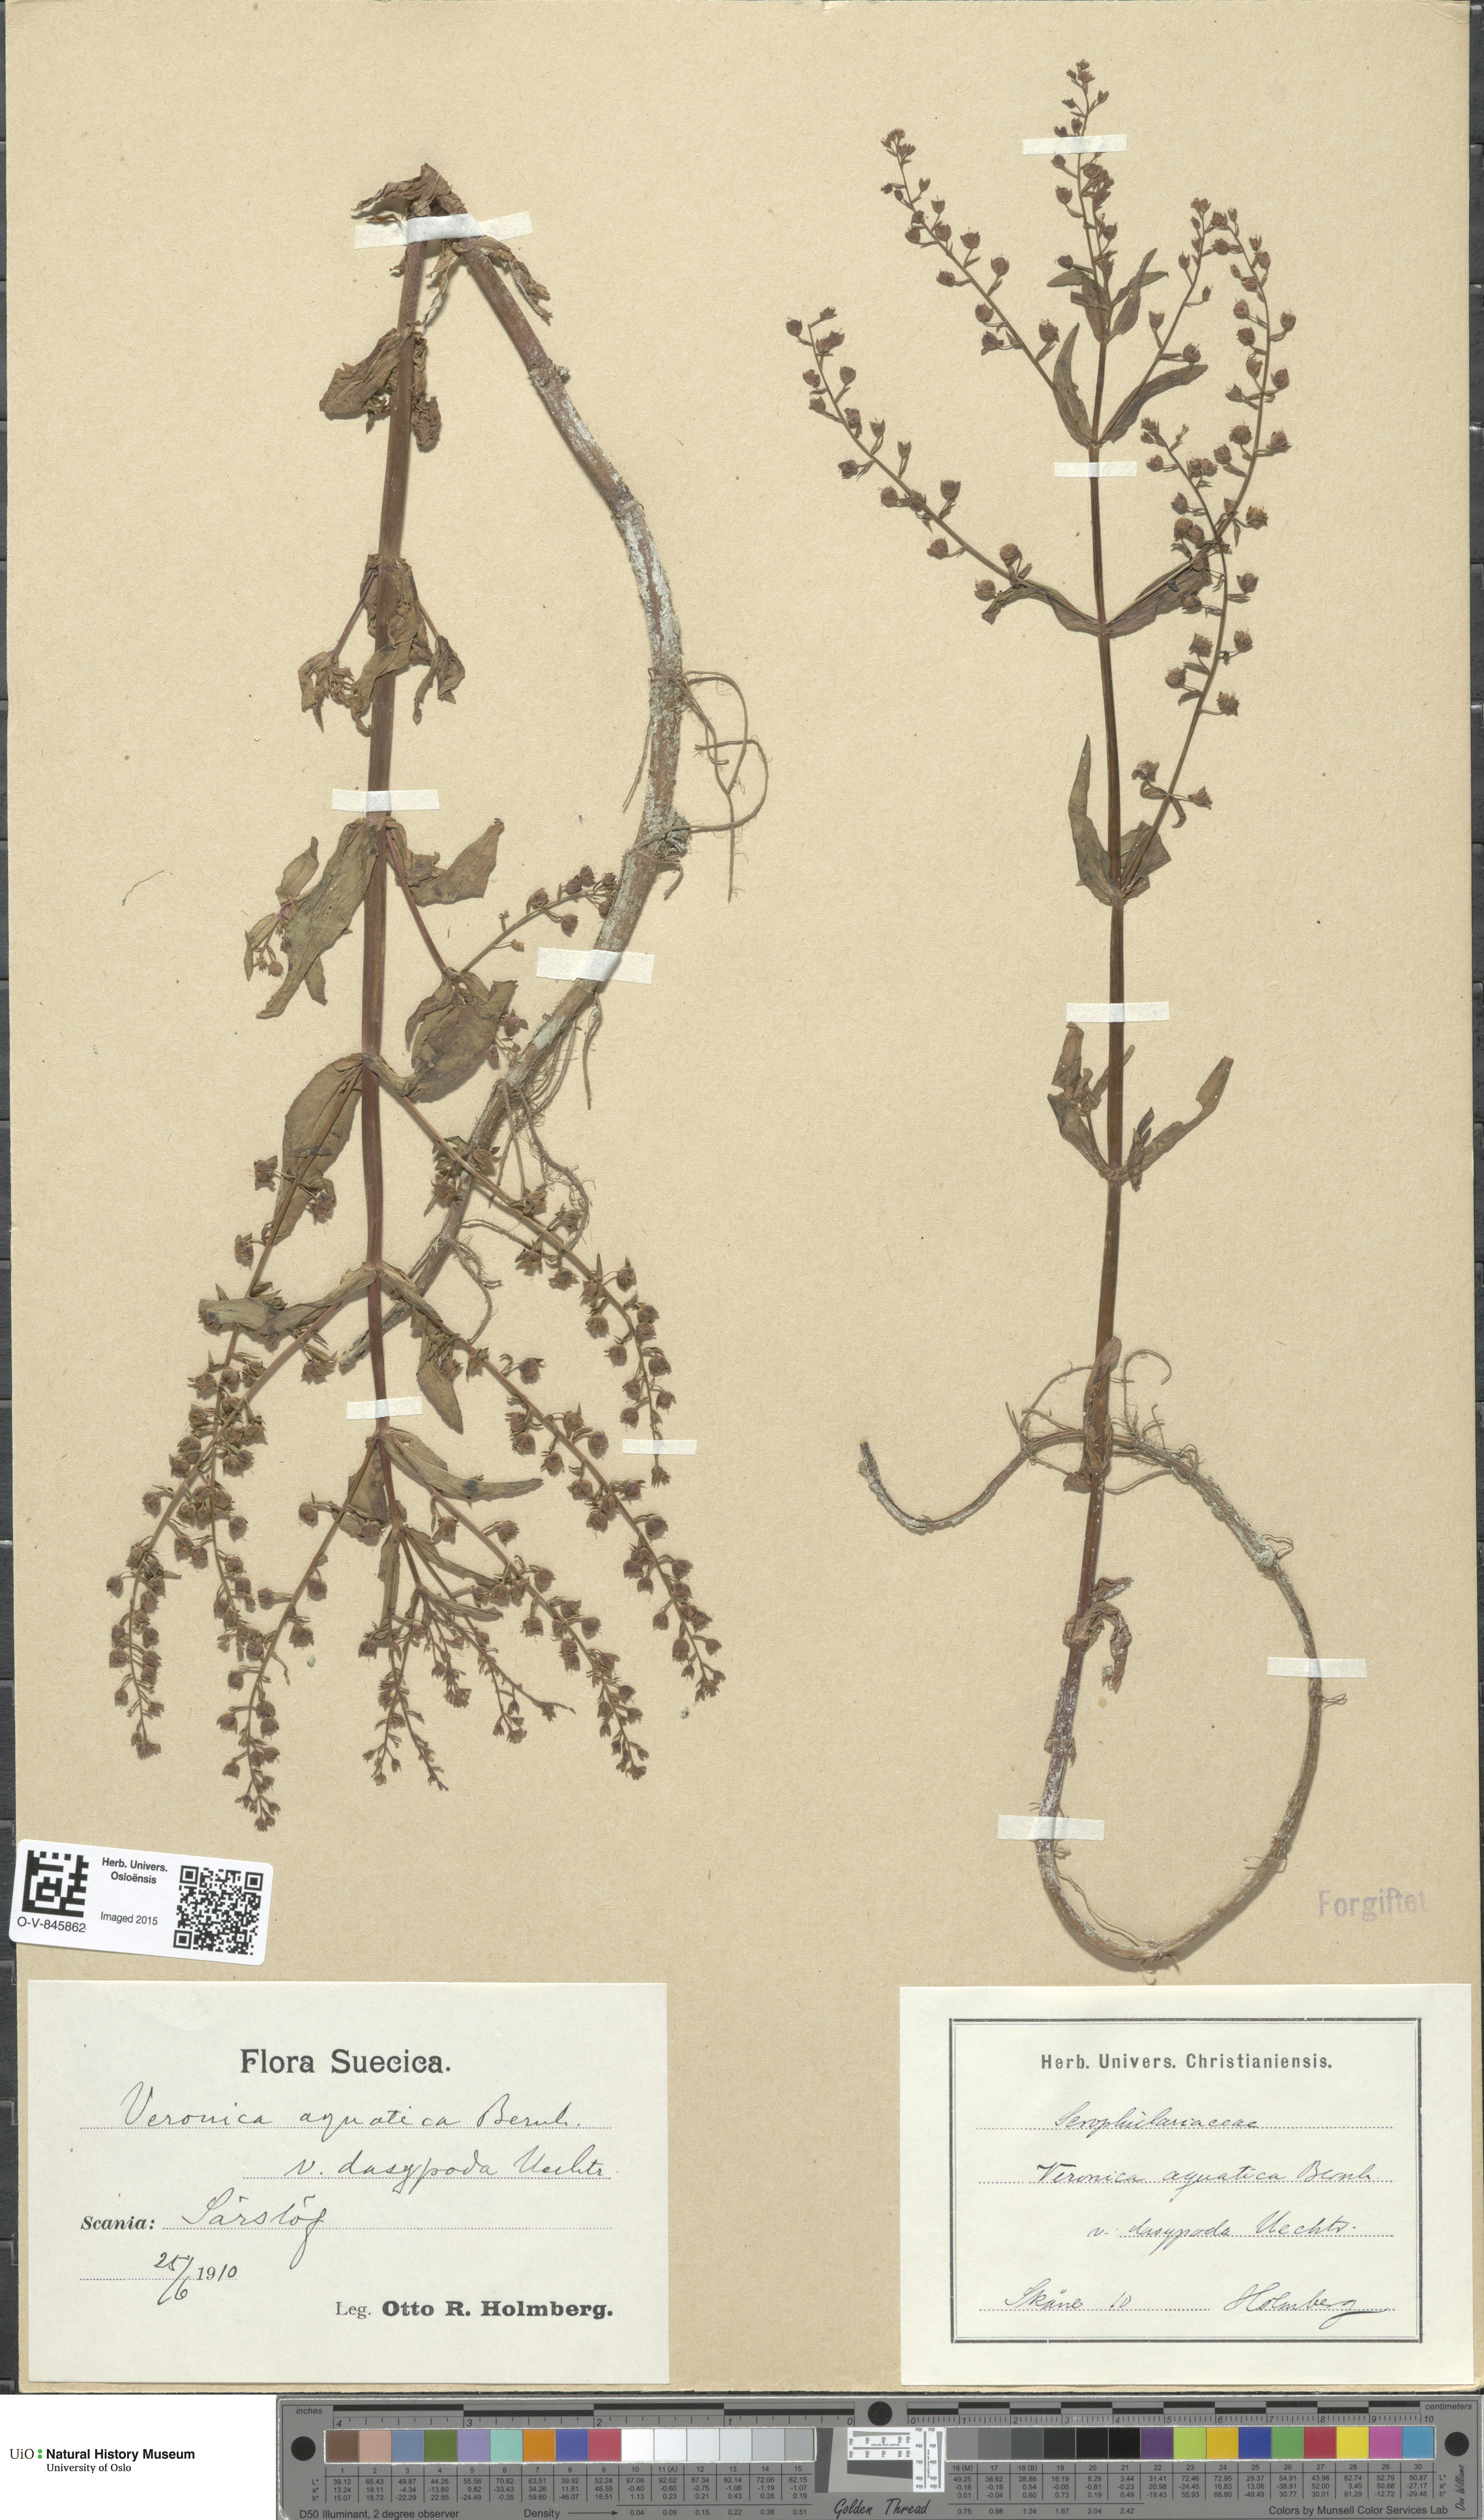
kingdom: Plantae
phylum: Tracheophyta
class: Magnoliopsida
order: Lamiales
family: Plantaginaceae
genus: Veronica
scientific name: Veronica catenata
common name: Pink water-speedwell
